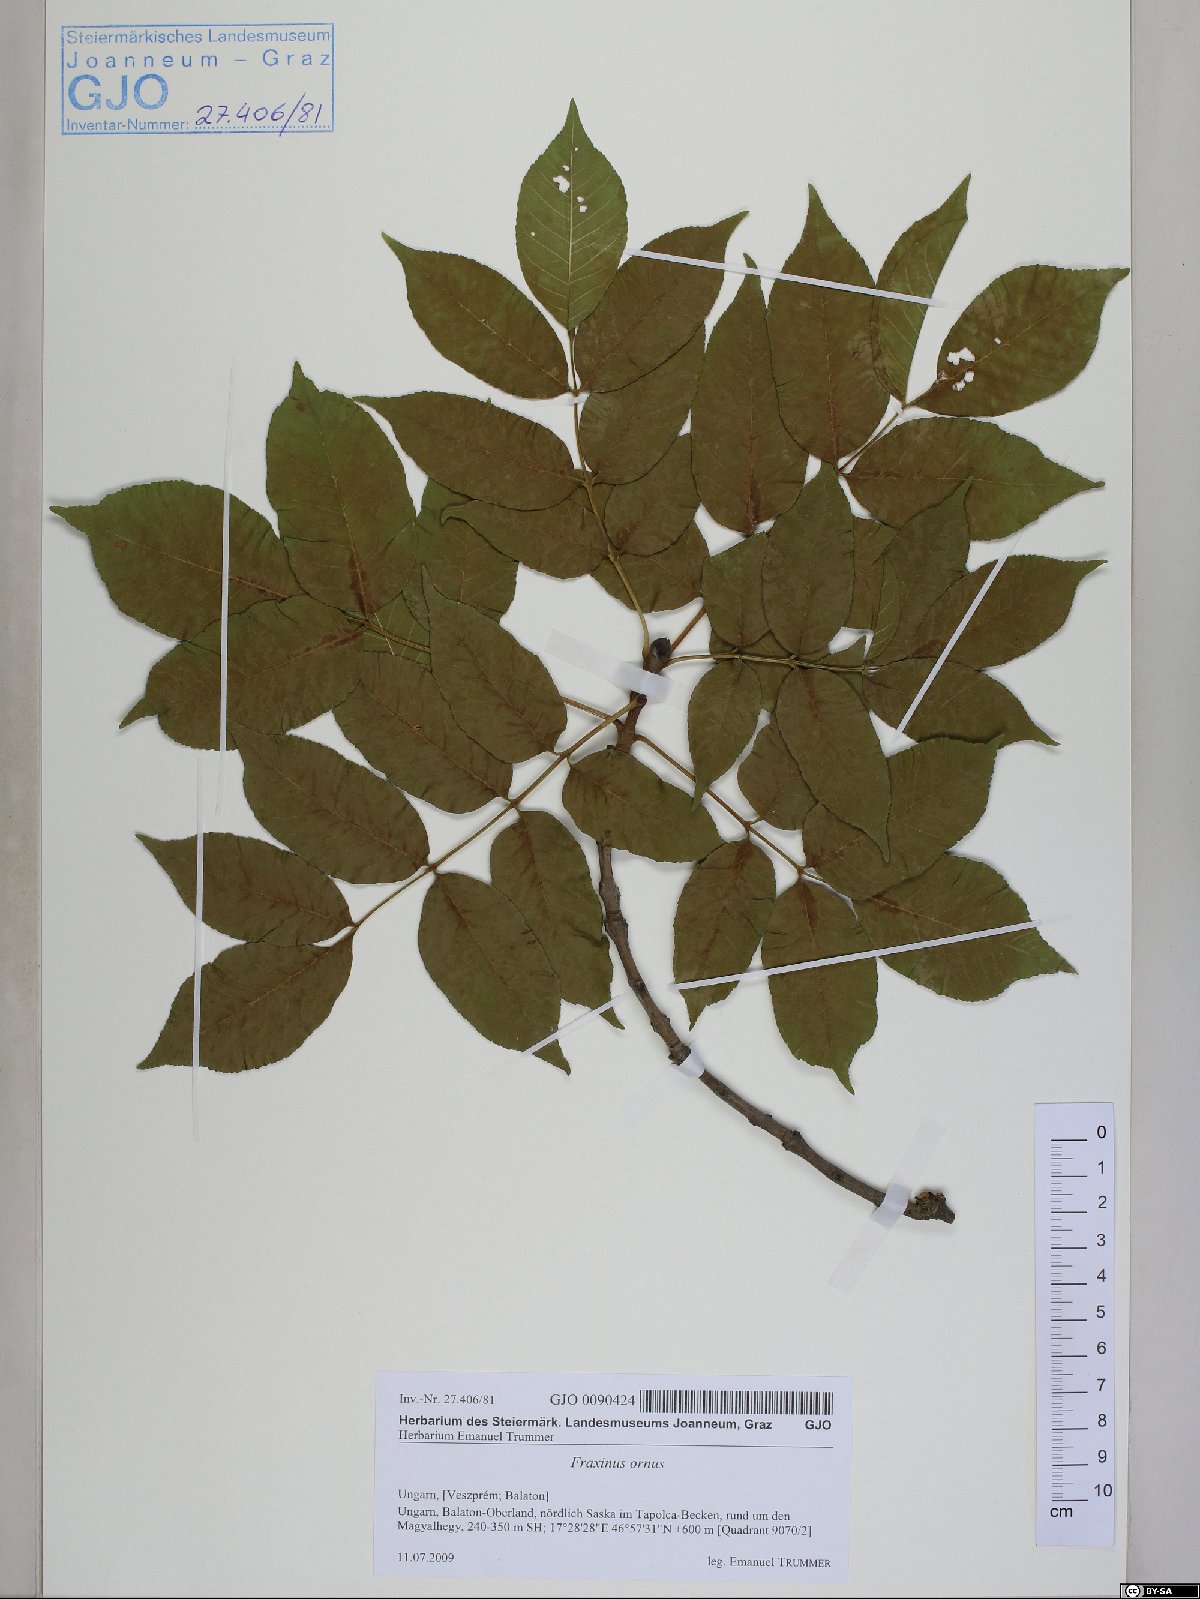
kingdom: Plantae
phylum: Tracheophyta
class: Magnoliopsida
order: Lamiales
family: Oleaceae
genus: Fraxinus
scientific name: Fraxinus ornus
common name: Manna ash
